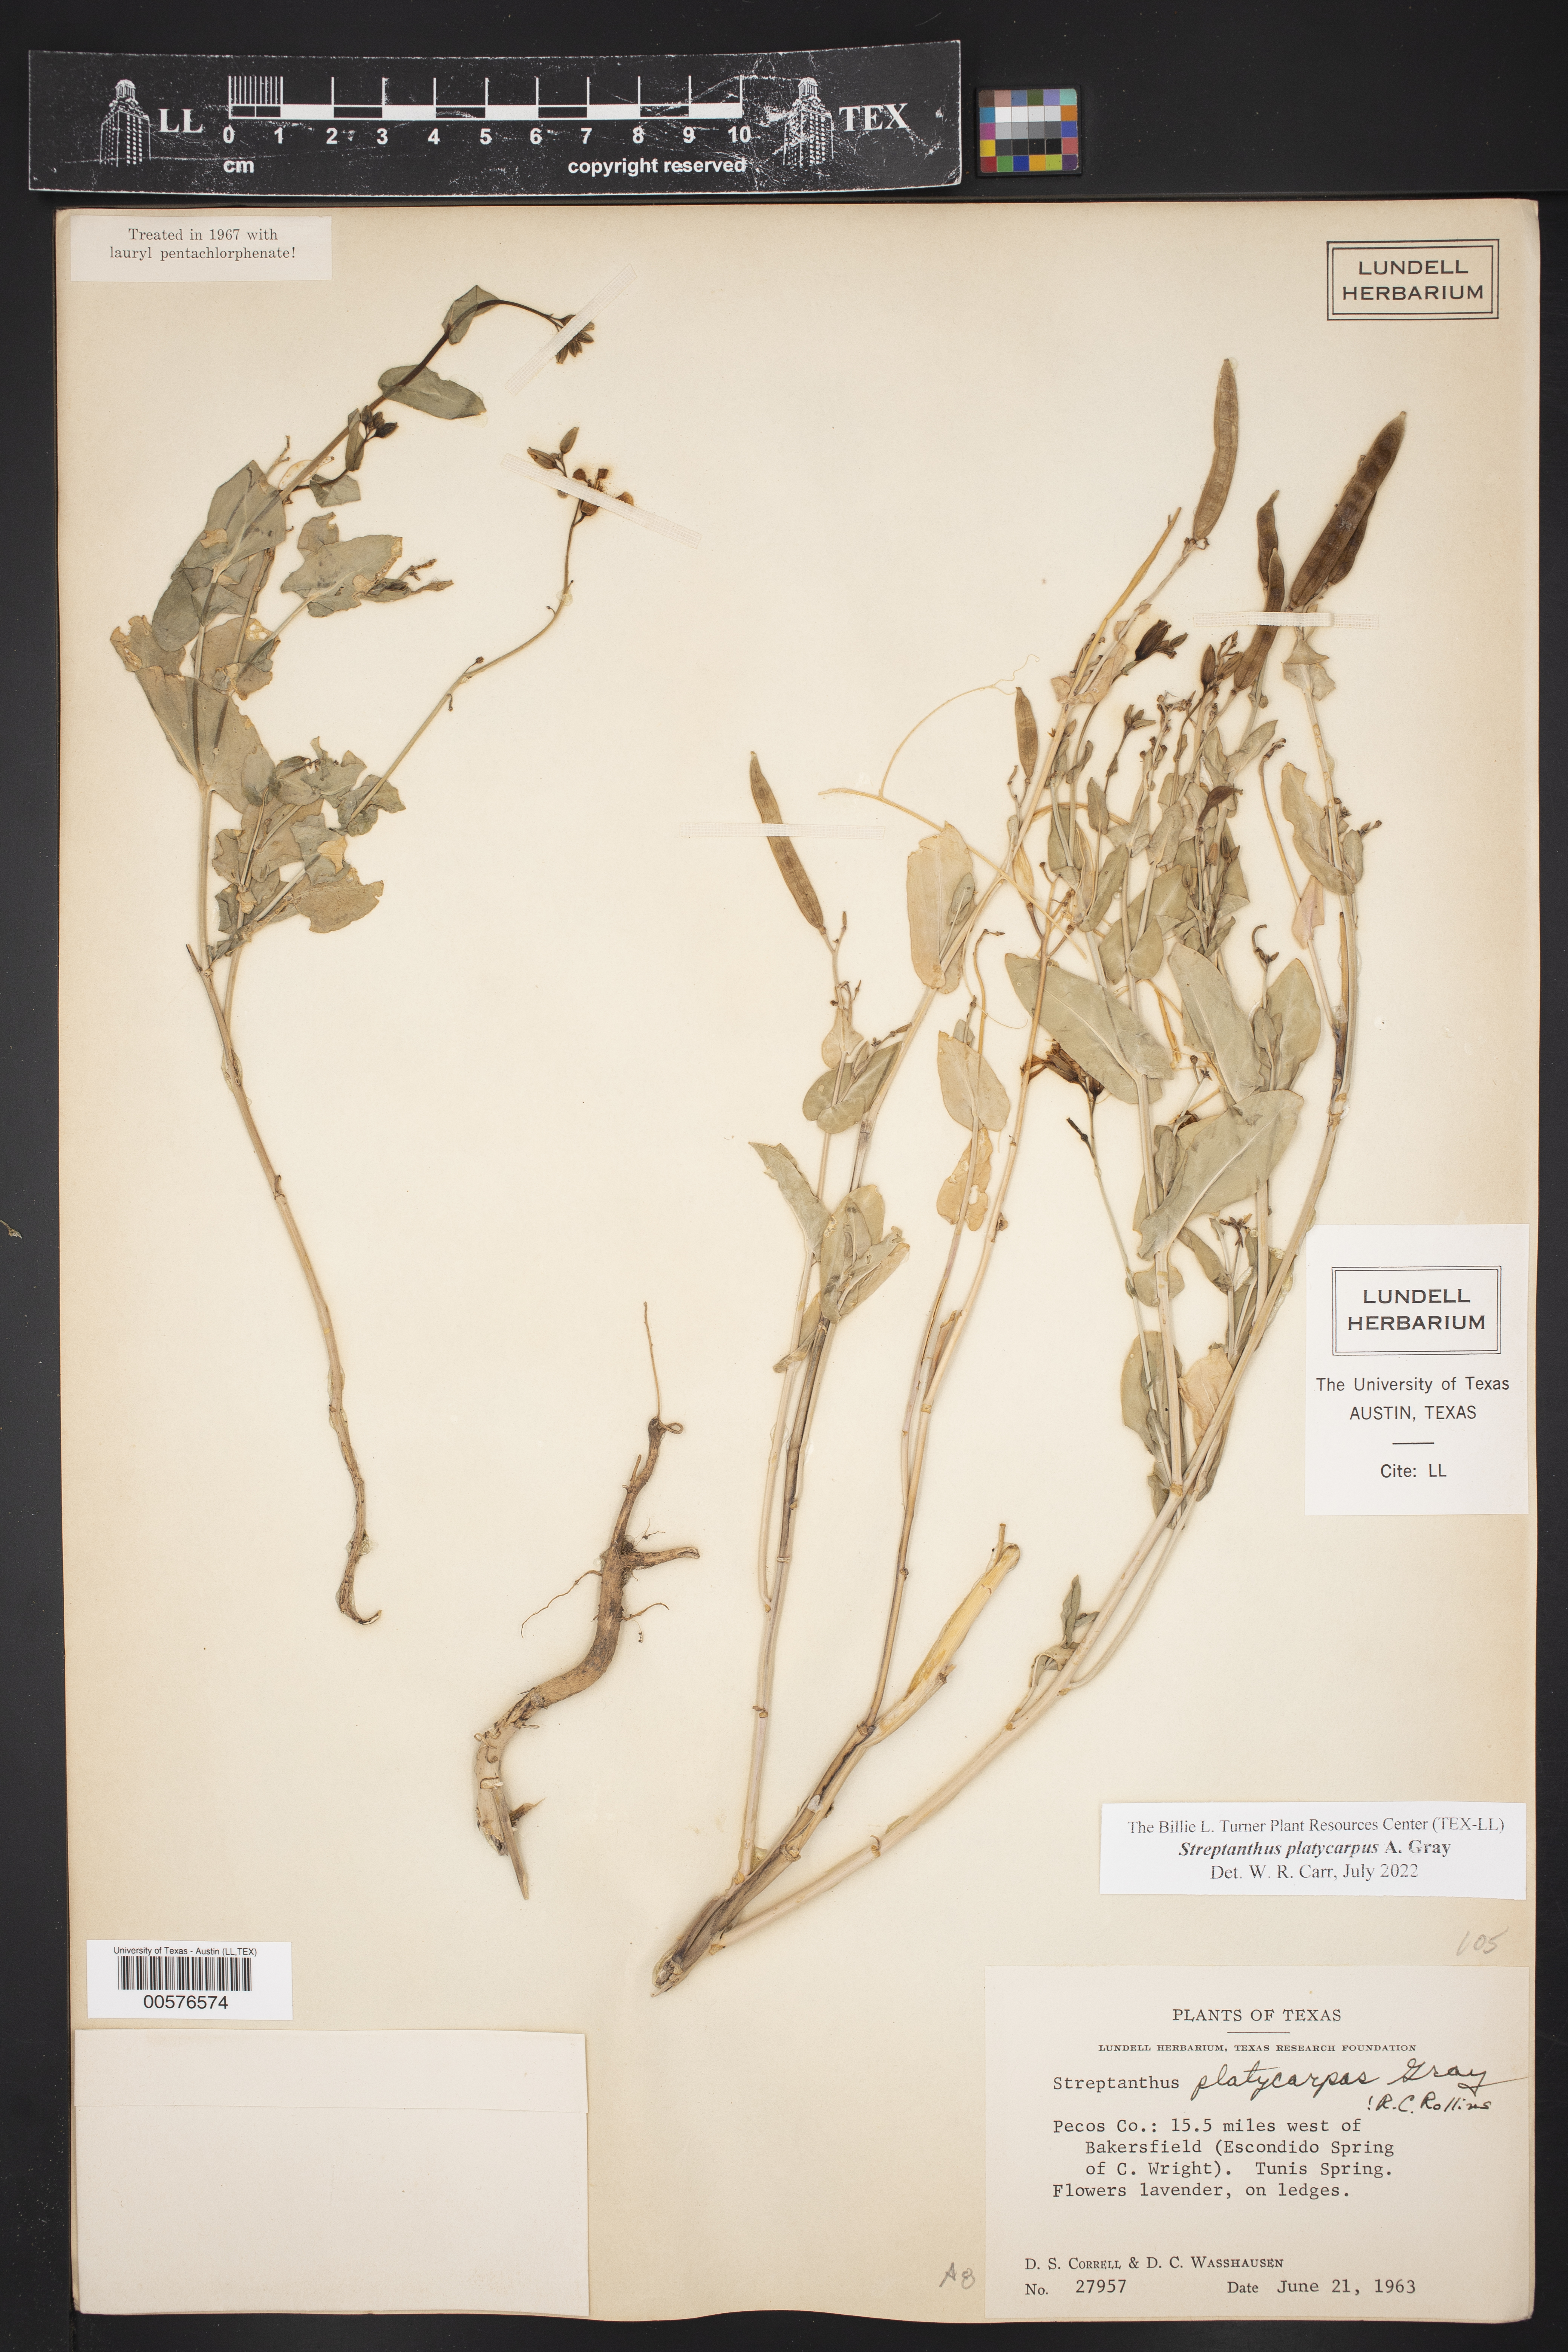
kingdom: Plantae
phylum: Tracheophyta
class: Magnoliopsida
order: Brassicales
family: Brassicaceae
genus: Streptanthus
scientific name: Streptanthus platycarpus
